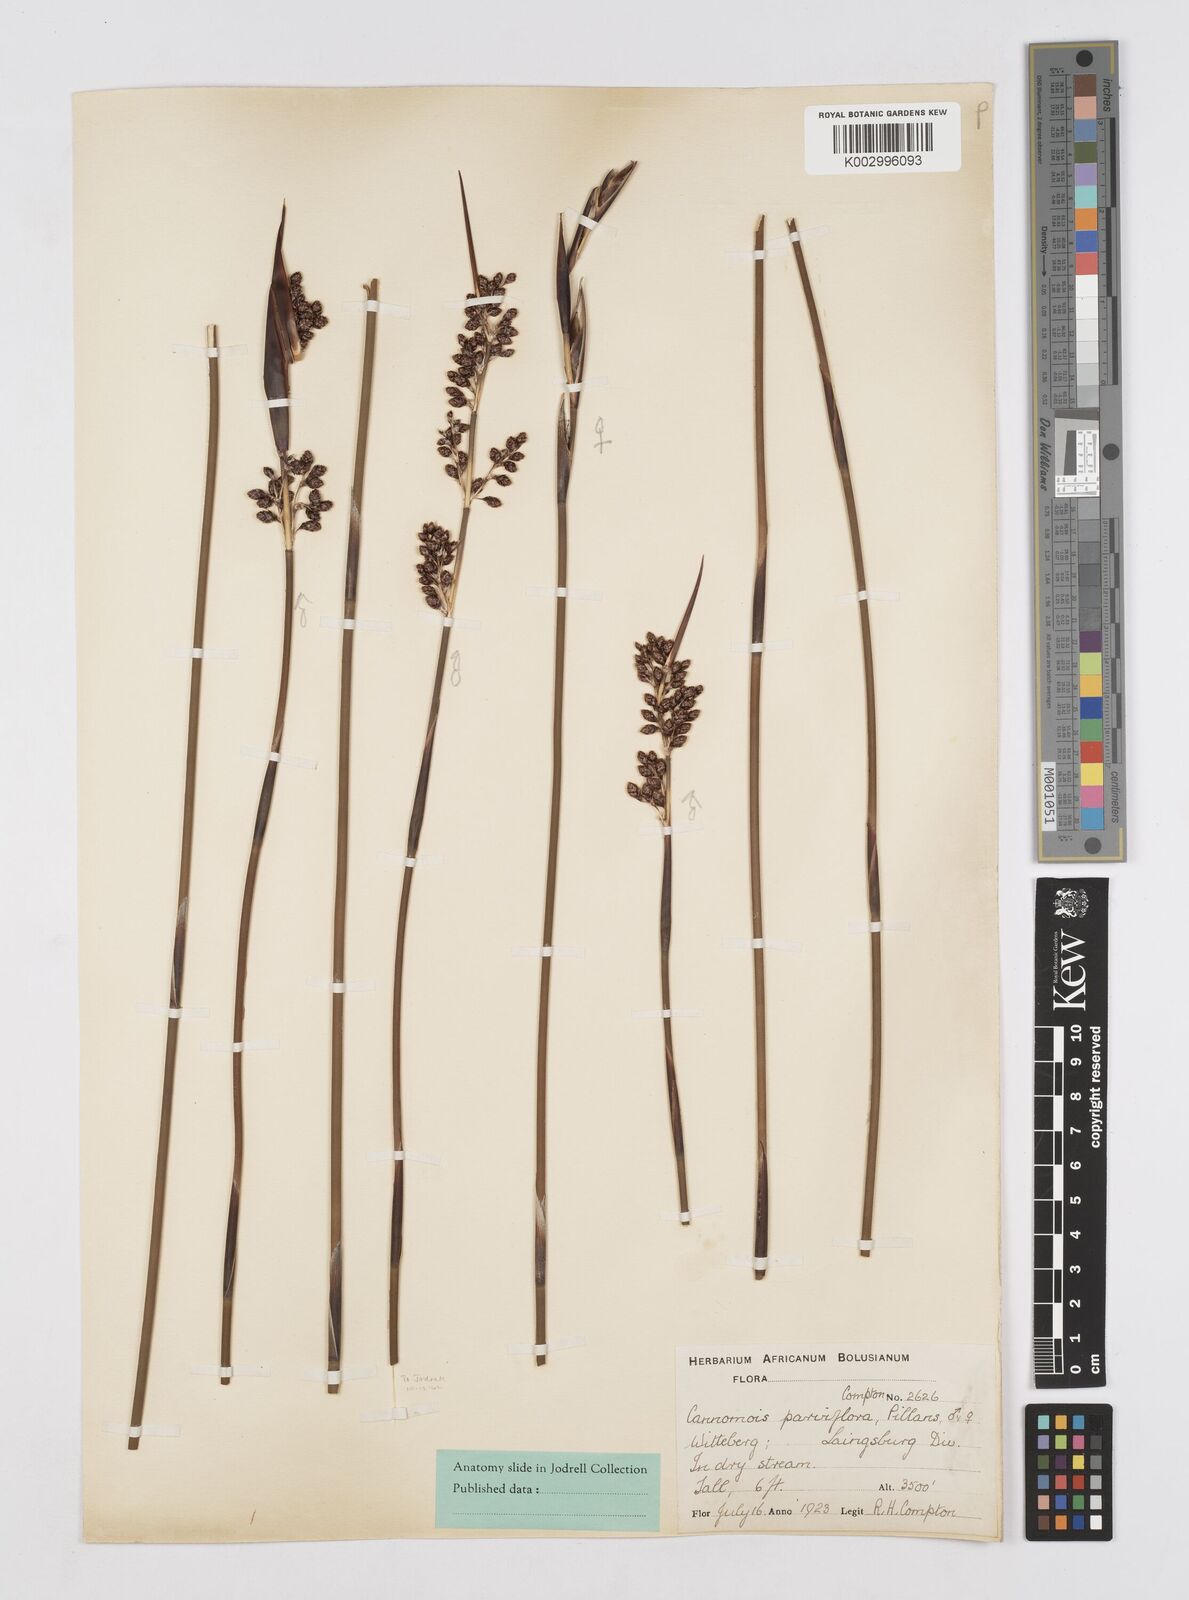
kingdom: Plantae
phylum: Tracheophyta
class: Liliopsida
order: Poales
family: Restionaceae
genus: Cannomois
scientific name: Cannomois parviflora
